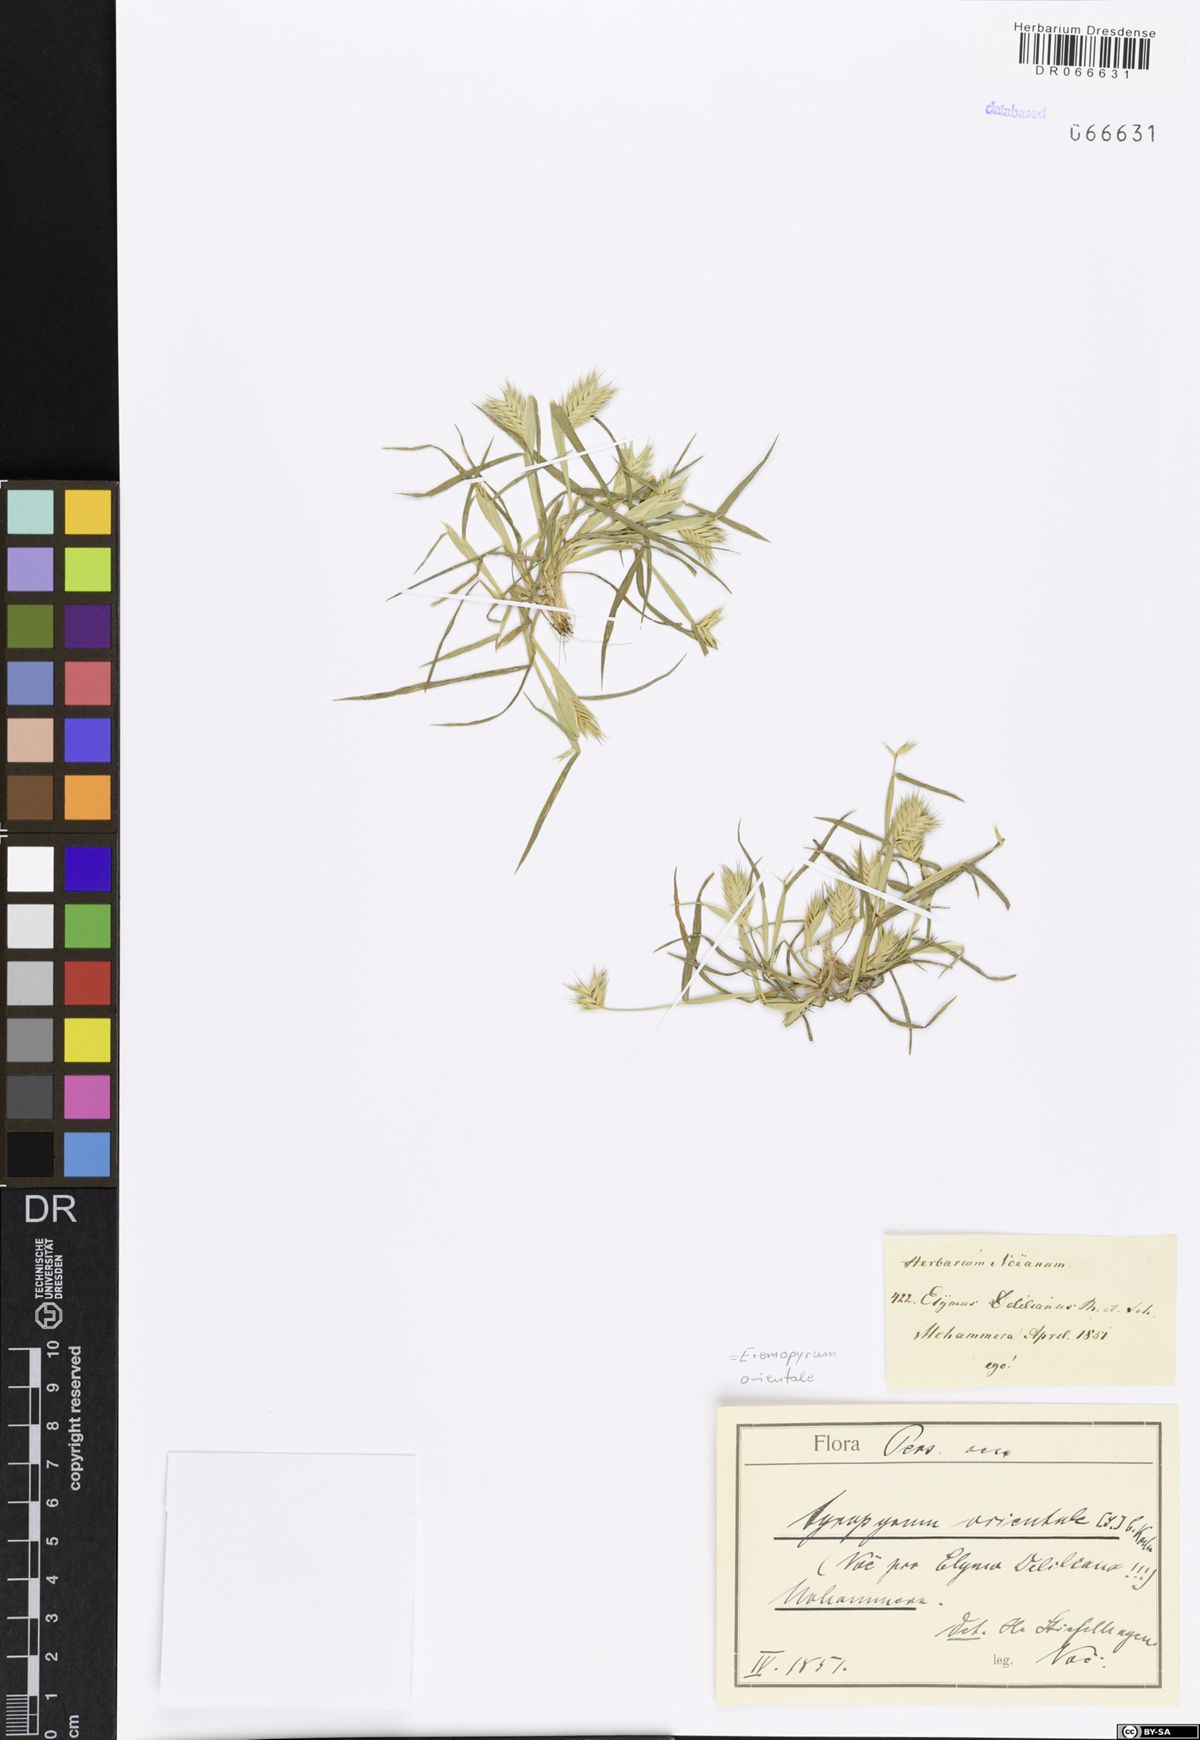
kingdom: Plantae
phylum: Tracheophyta
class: Liliopsida
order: Poales
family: Poaceae
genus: Eremopyrum
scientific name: Eremopyrum orientale
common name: Oriental false wheatgrass
